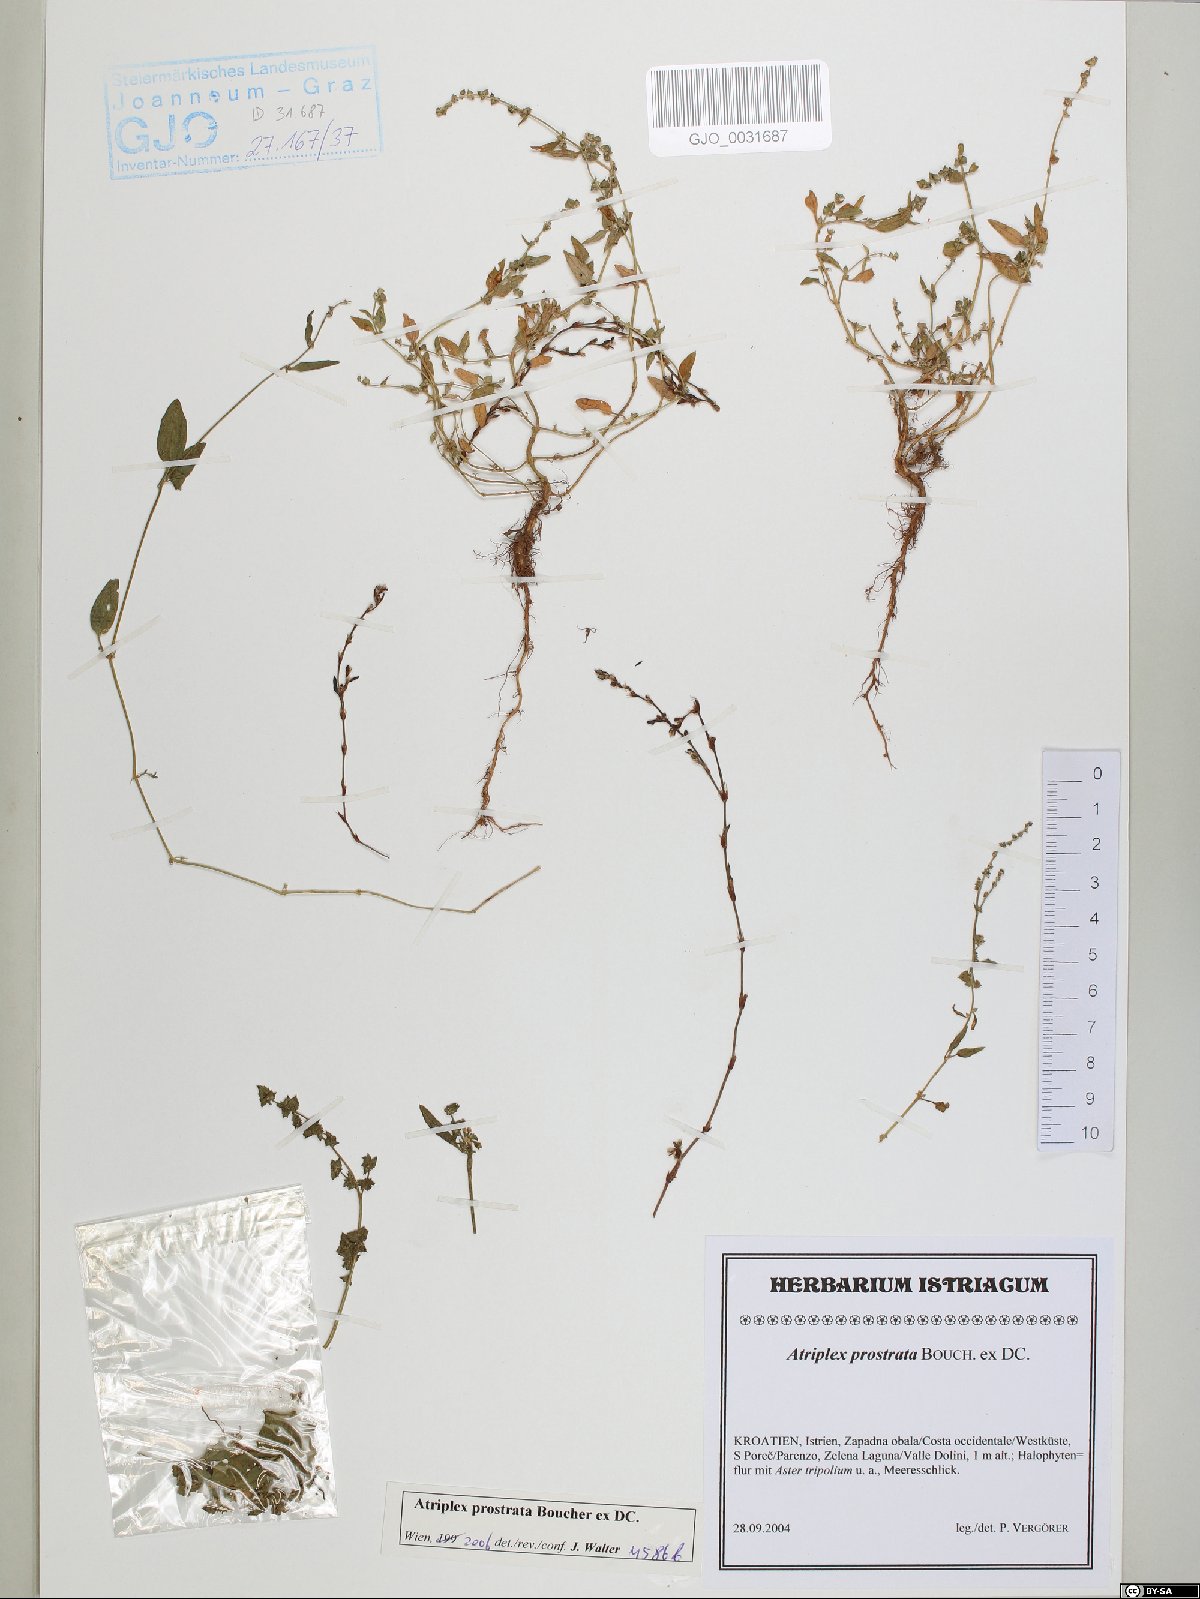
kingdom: Plantae
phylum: Tracheophyta
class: Magnoliopsida
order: Caryophyllales
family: Amaranthaceae
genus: Atriplex
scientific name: Atriplex prostrata
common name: Spear-leaved orache
